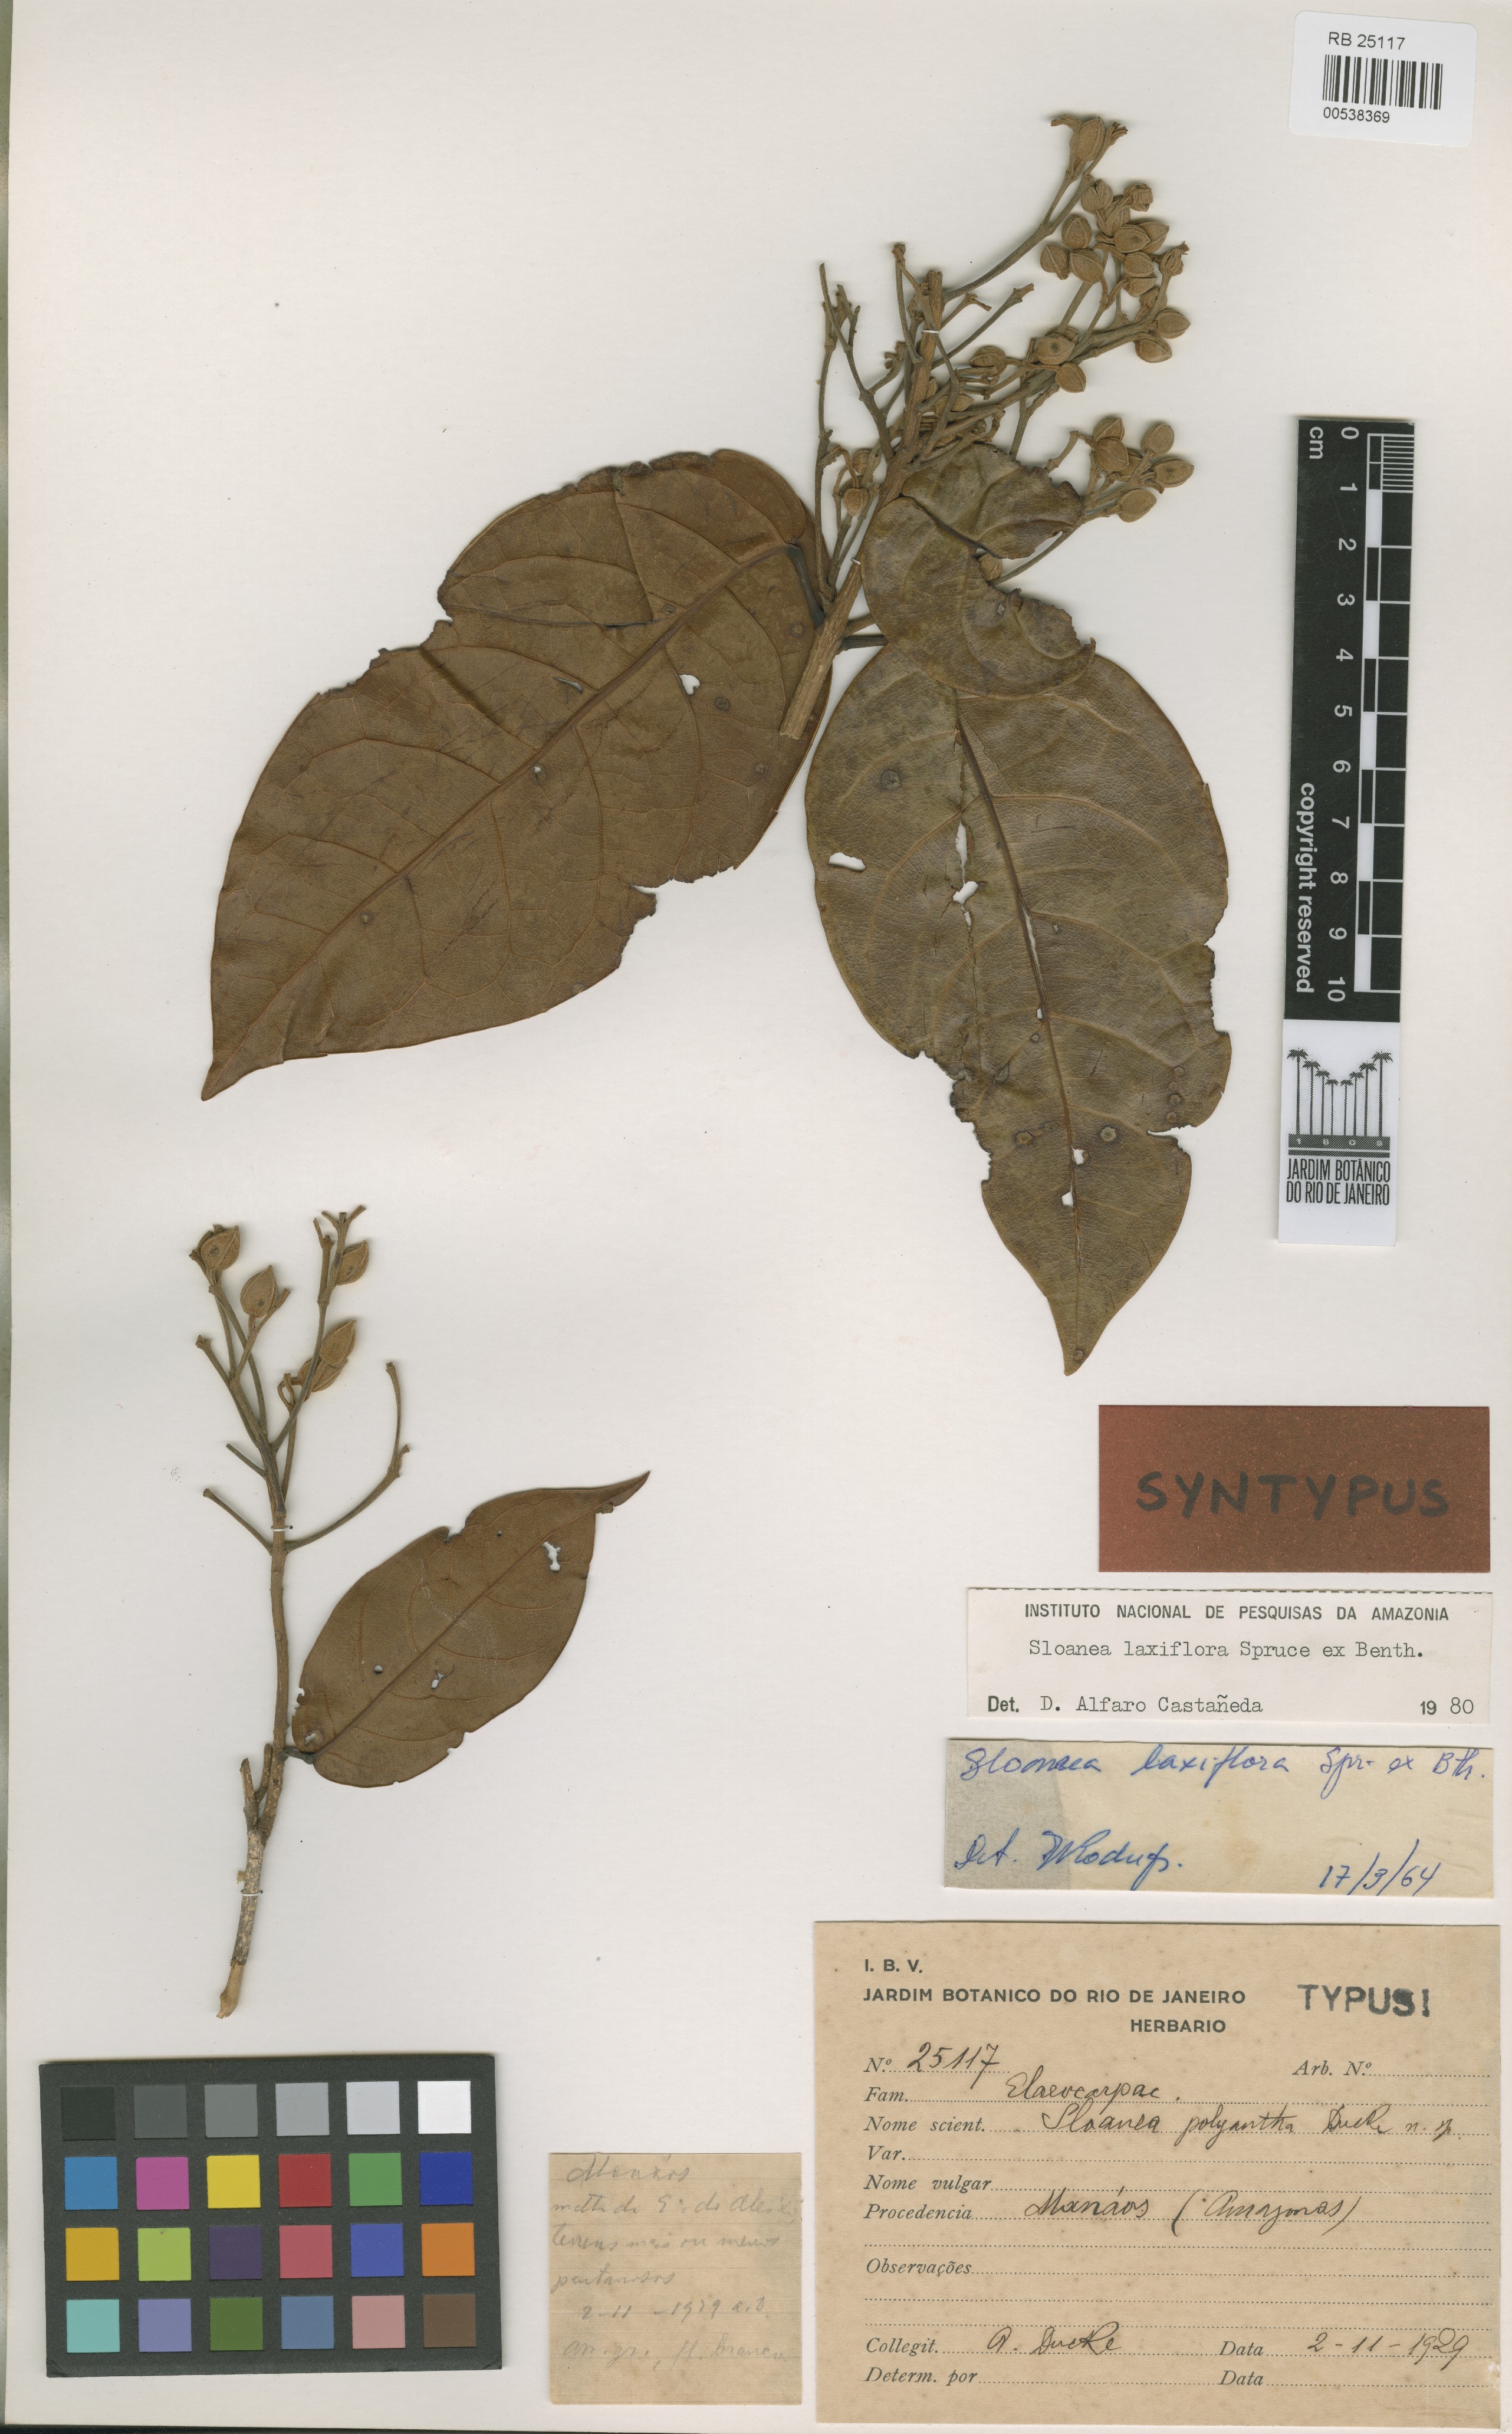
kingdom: Plantae
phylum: Tracheophyta
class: Magnoliopsida
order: Oxalidales
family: Elaeocarpaceae
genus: Sloanea
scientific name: Sloanea laxiflora
